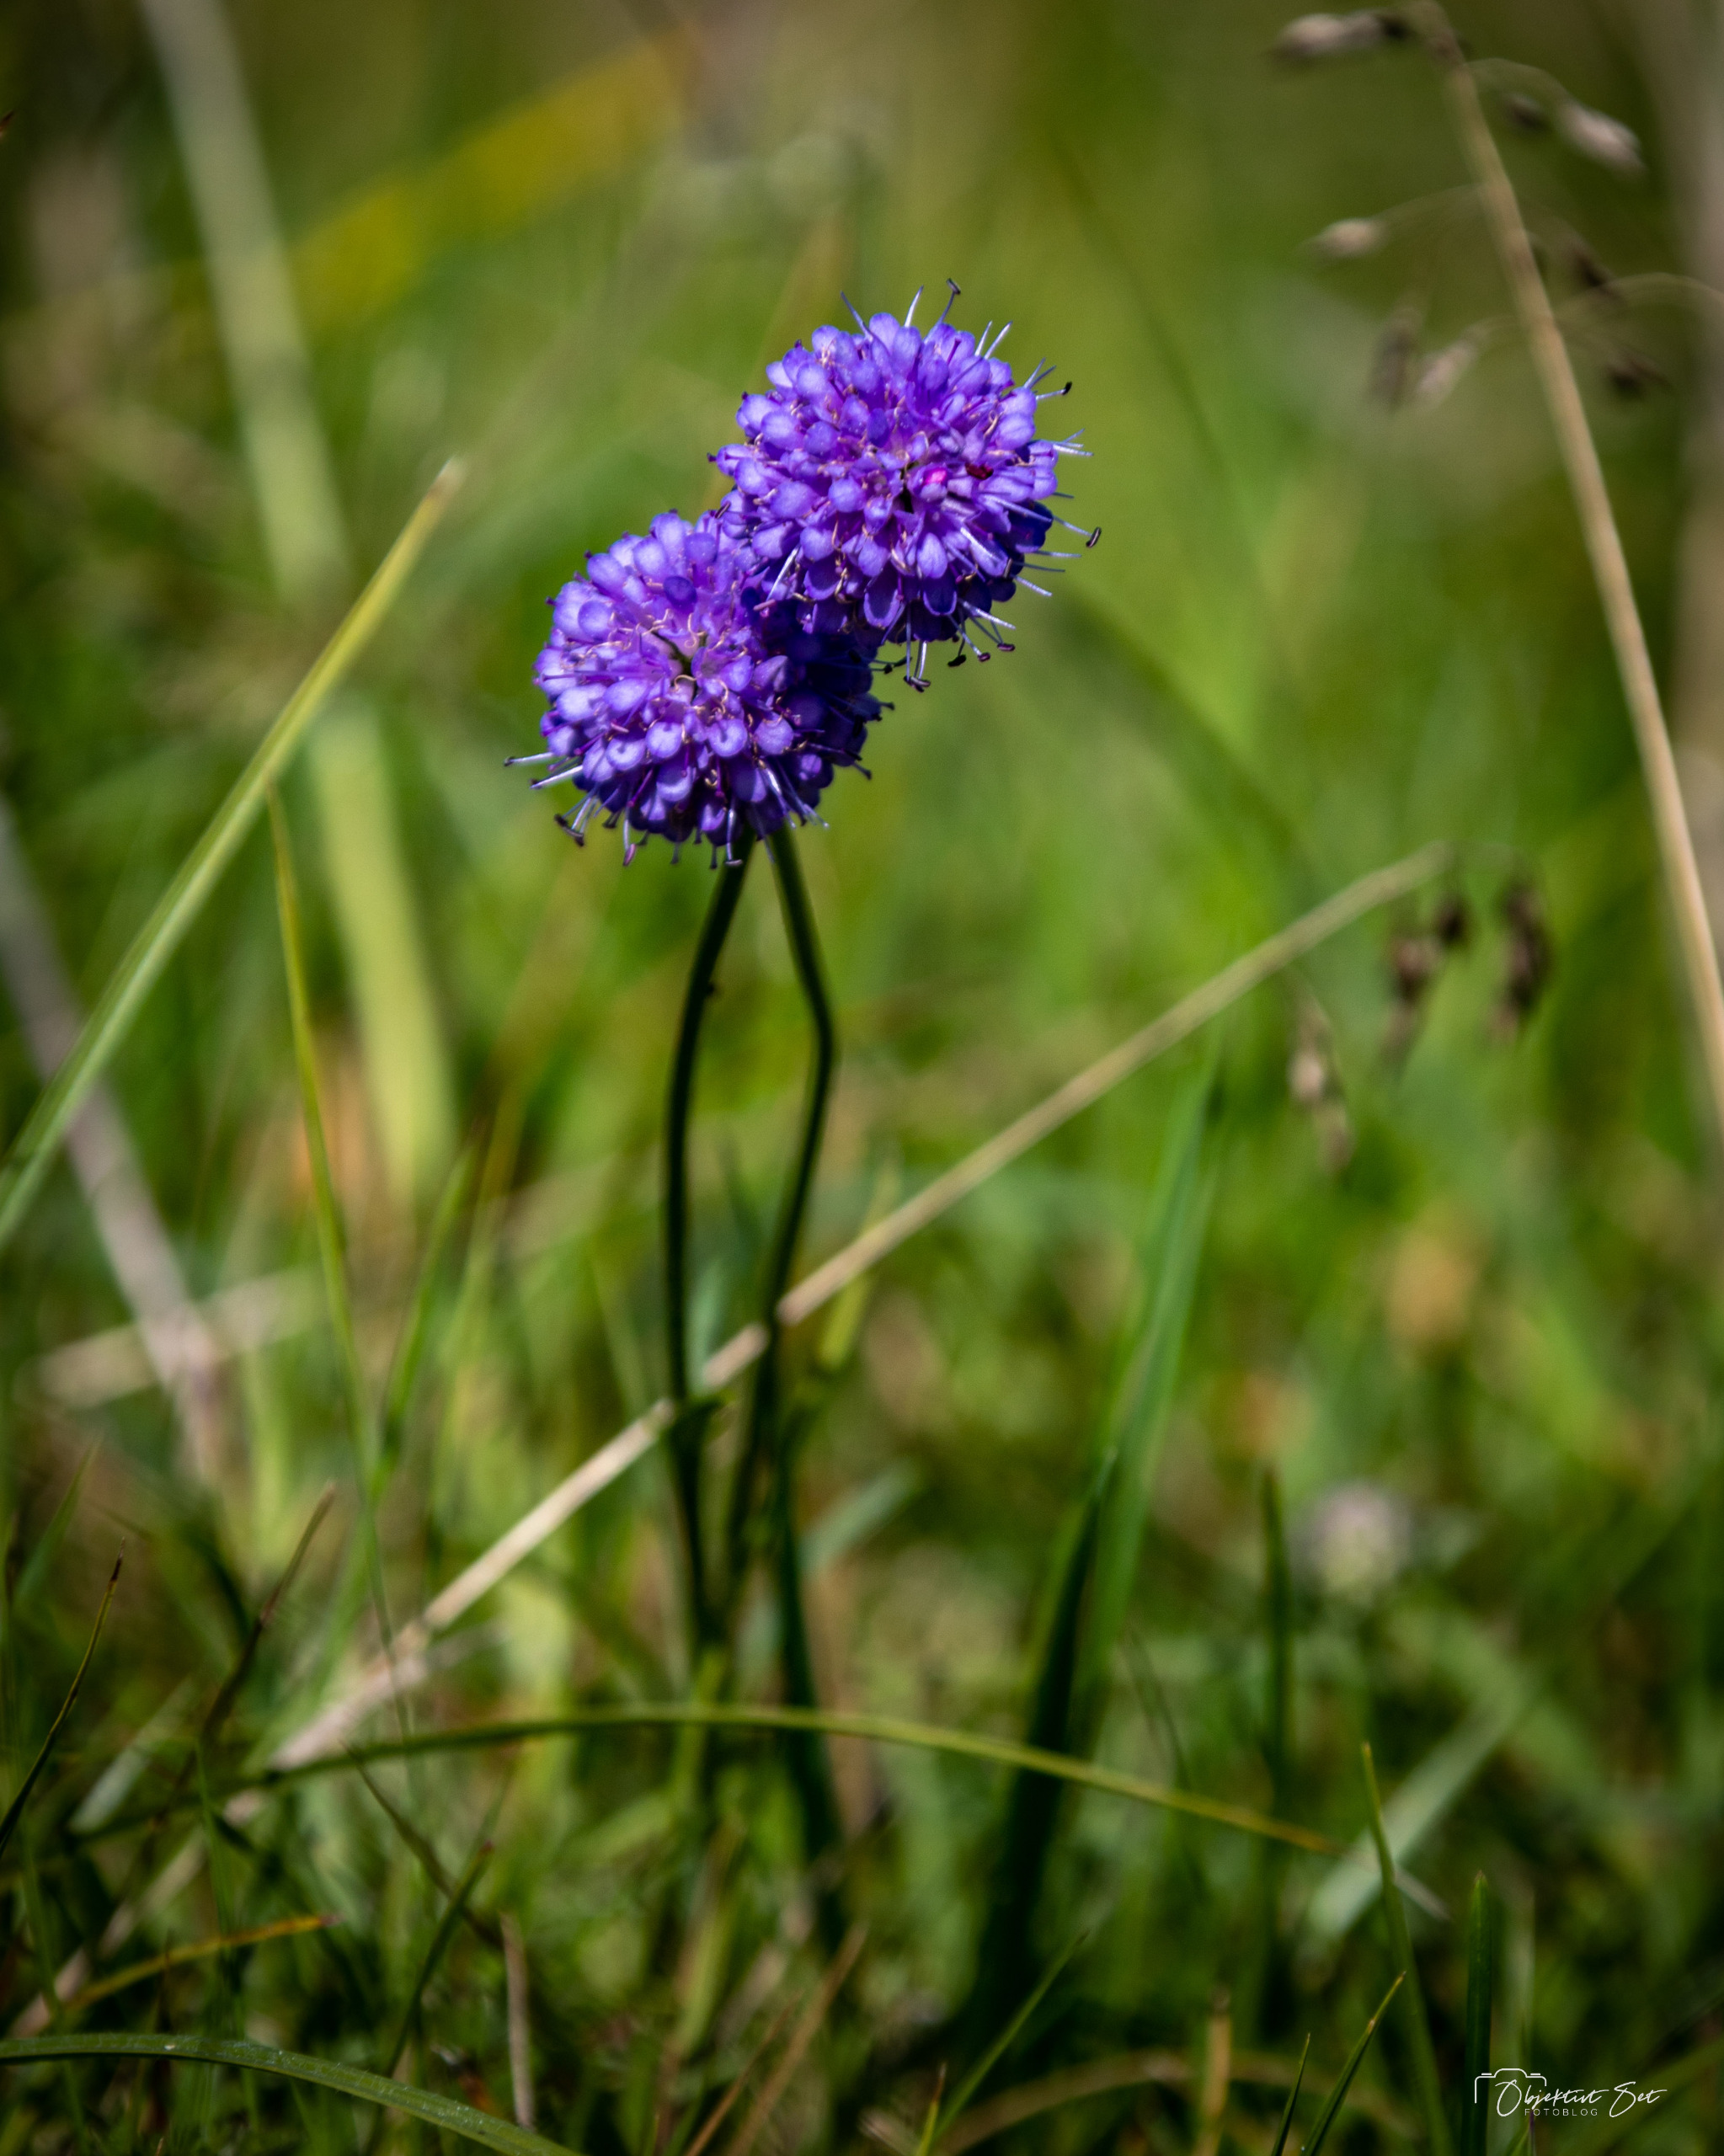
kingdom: Plantae
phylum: Tracheophyta
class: Magnoliopsida
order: Dipsacales
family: Caprifoliaceae
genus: Succisa
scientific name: Succisa pratensis
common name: Djævelsbid
